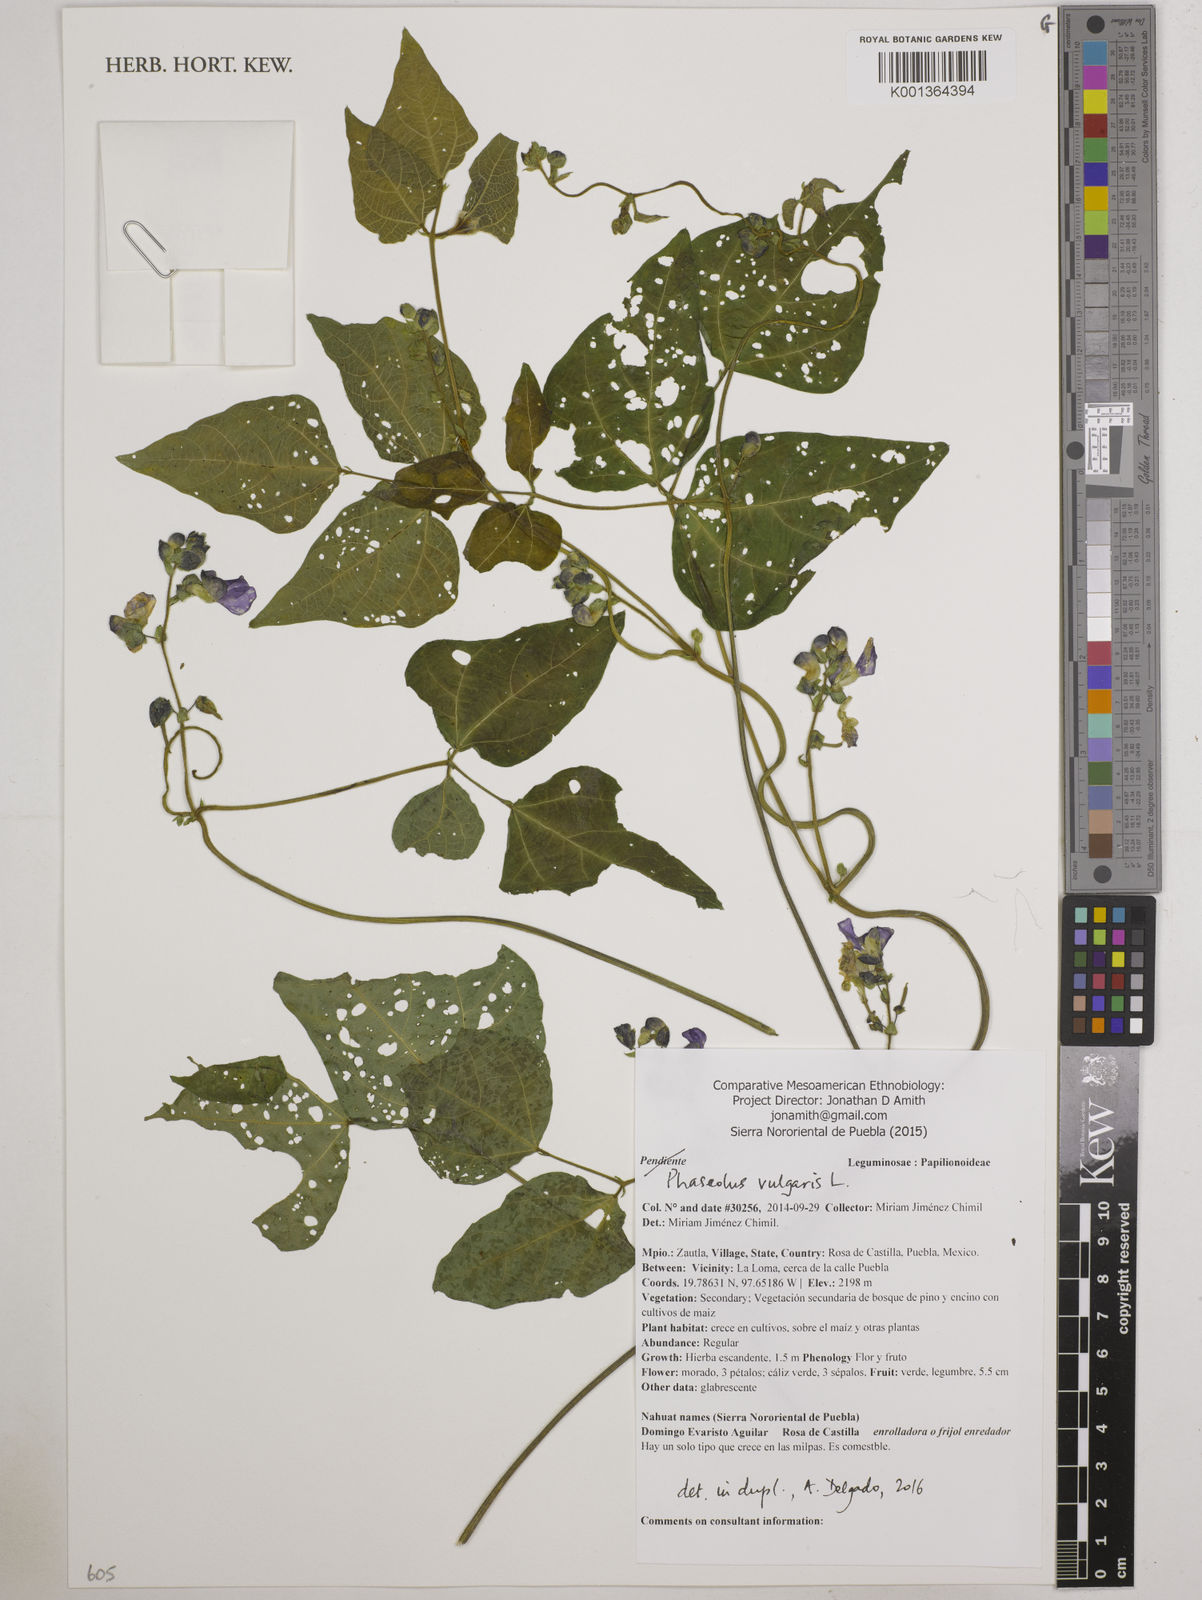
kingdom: Plantae
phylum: Tracheophyta
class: Magnoliopsida
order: Fabales
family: Fabaceae
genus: Phaseolus
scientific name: Phaseolus vulgaris
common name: Bean
